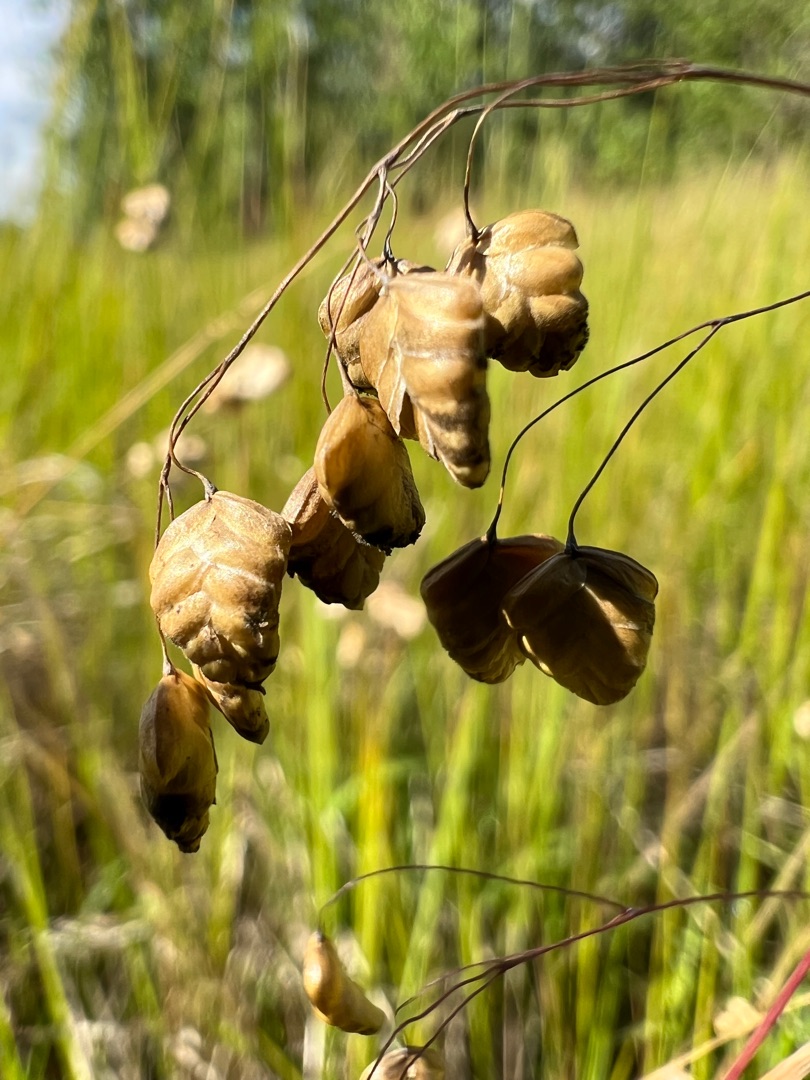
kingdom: Plantae
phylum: Tracheophyta
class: Liliopsida
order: Poales
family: Poaceae
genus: Briza
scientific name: Briza media
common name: Hjertegræs
